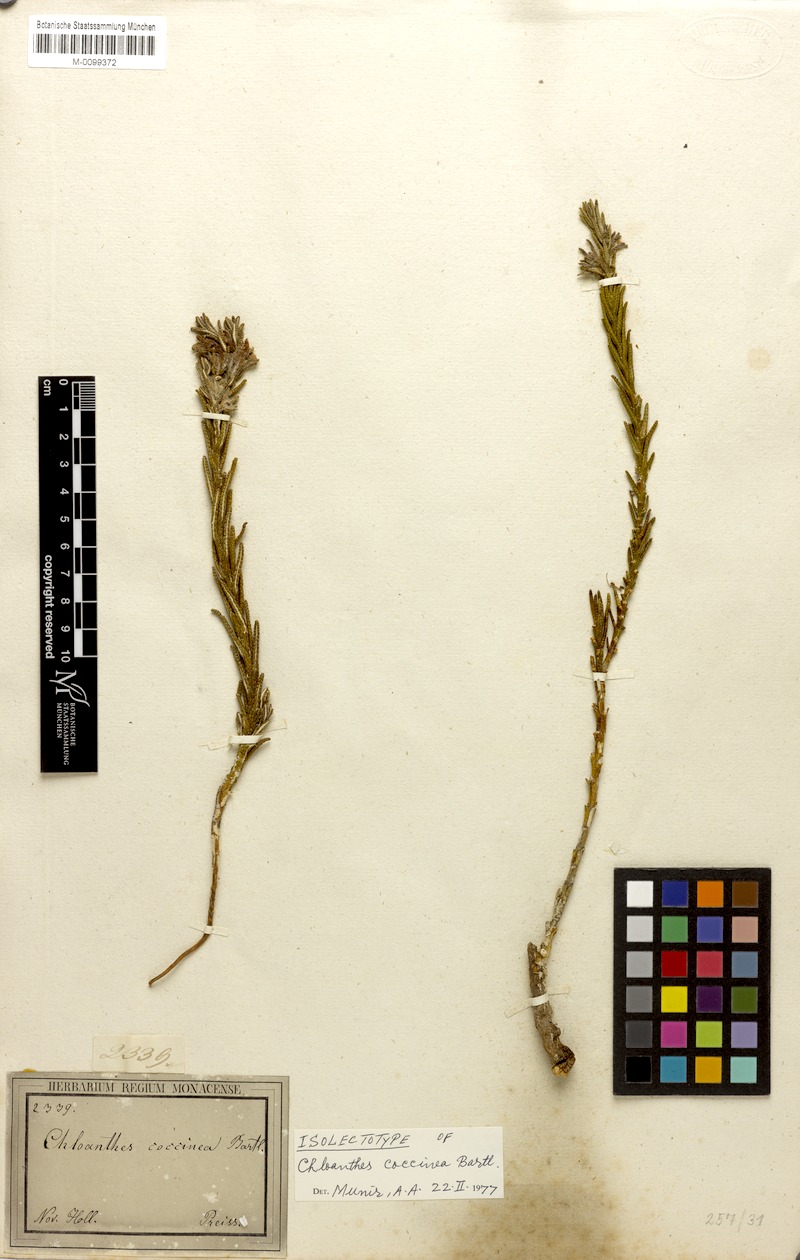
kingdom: Plantae
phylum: Tracheophyta
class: Magnoliopsida
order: Lamiales
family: Lamiaceae
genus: Chloanthes
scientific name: Chloanthes coccinea
